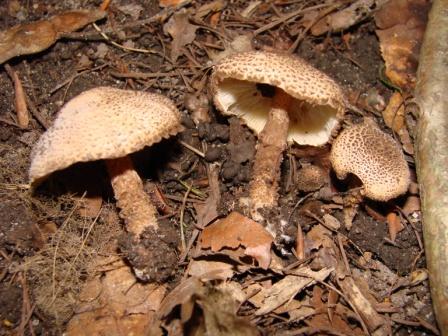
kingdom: Fungi
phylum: Basidiomycota
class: Agaricomycetes
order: Agaricales
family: Agaricaceae
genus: Echinoderma
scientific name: Echinoderma jacobi
